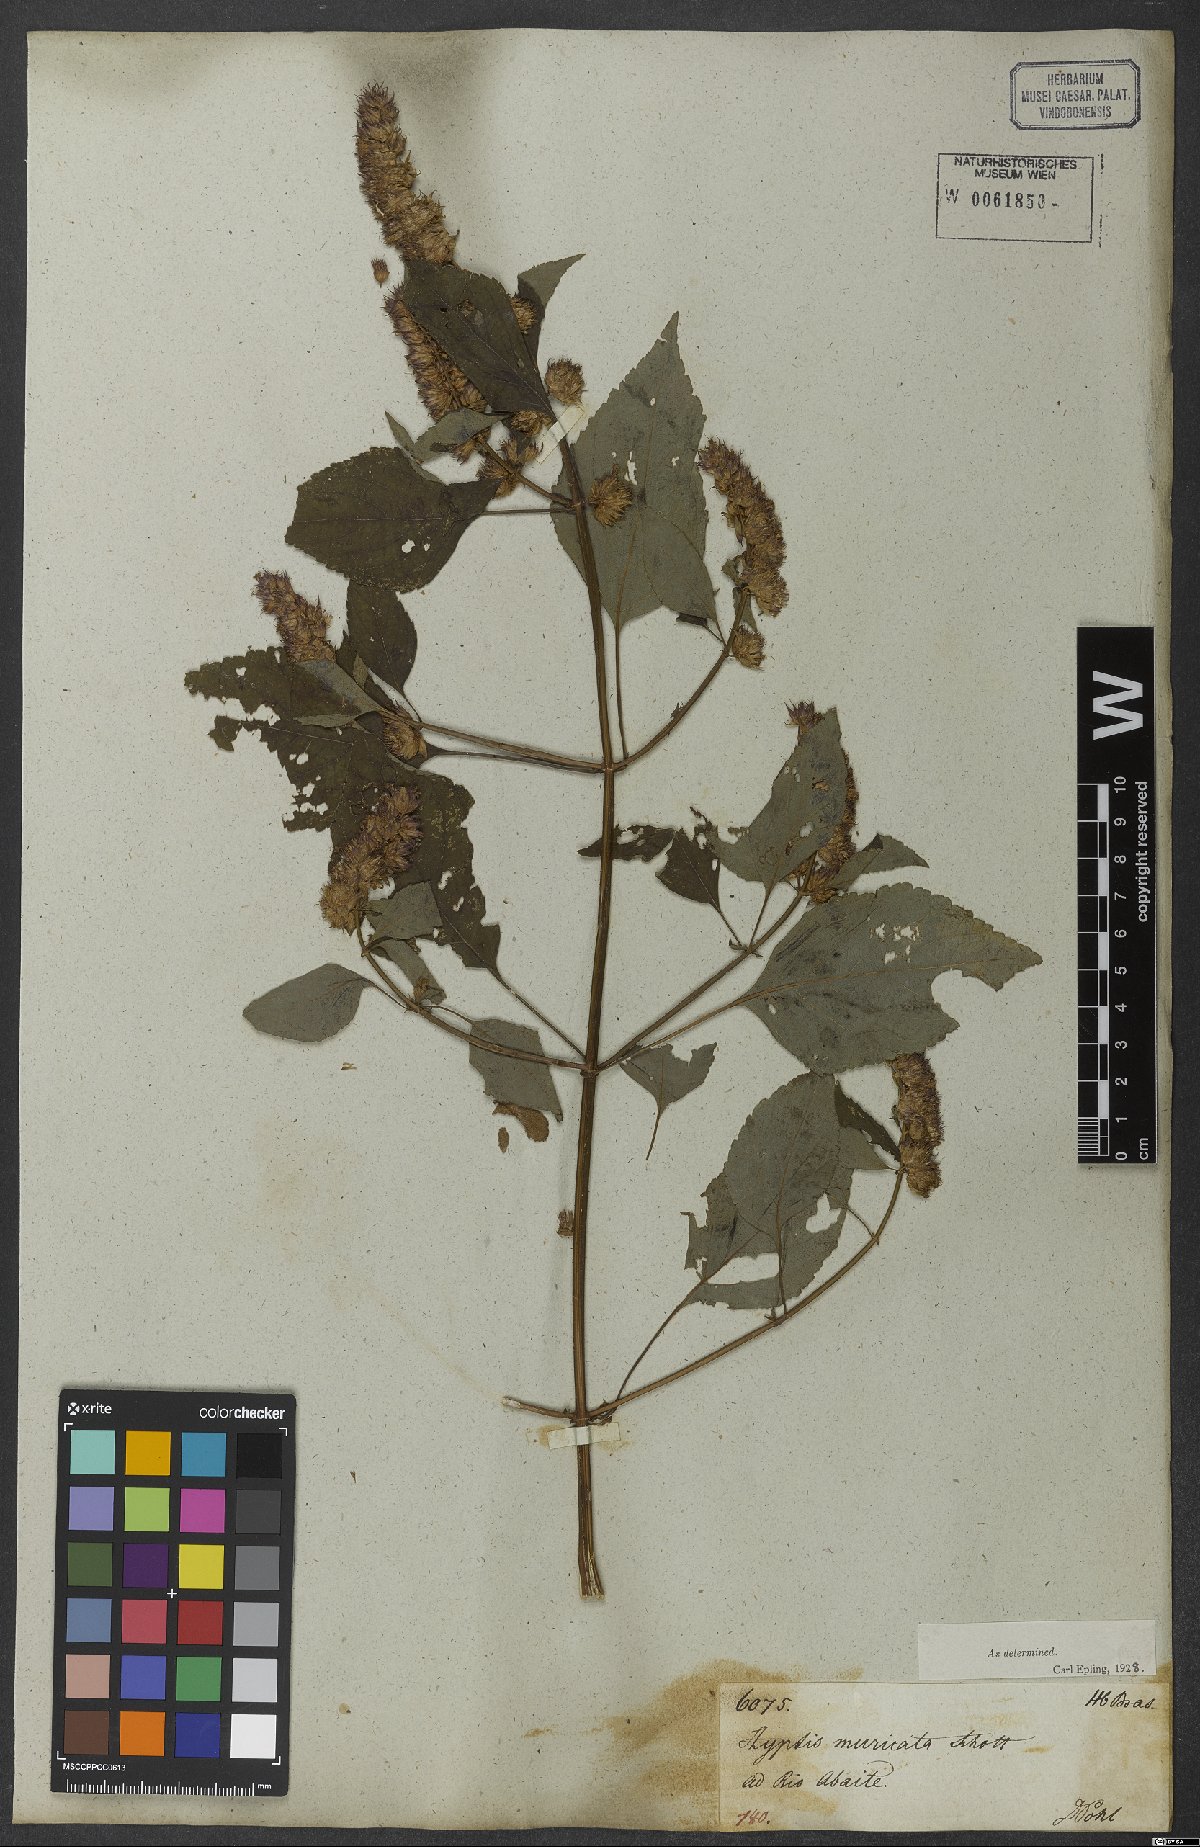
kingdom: Plantae
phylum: Tracheophyta
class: Magnoliopsida
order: Lamiales
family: Lamiaceae
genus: Cantinoa
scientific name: Cantinoa muricata
